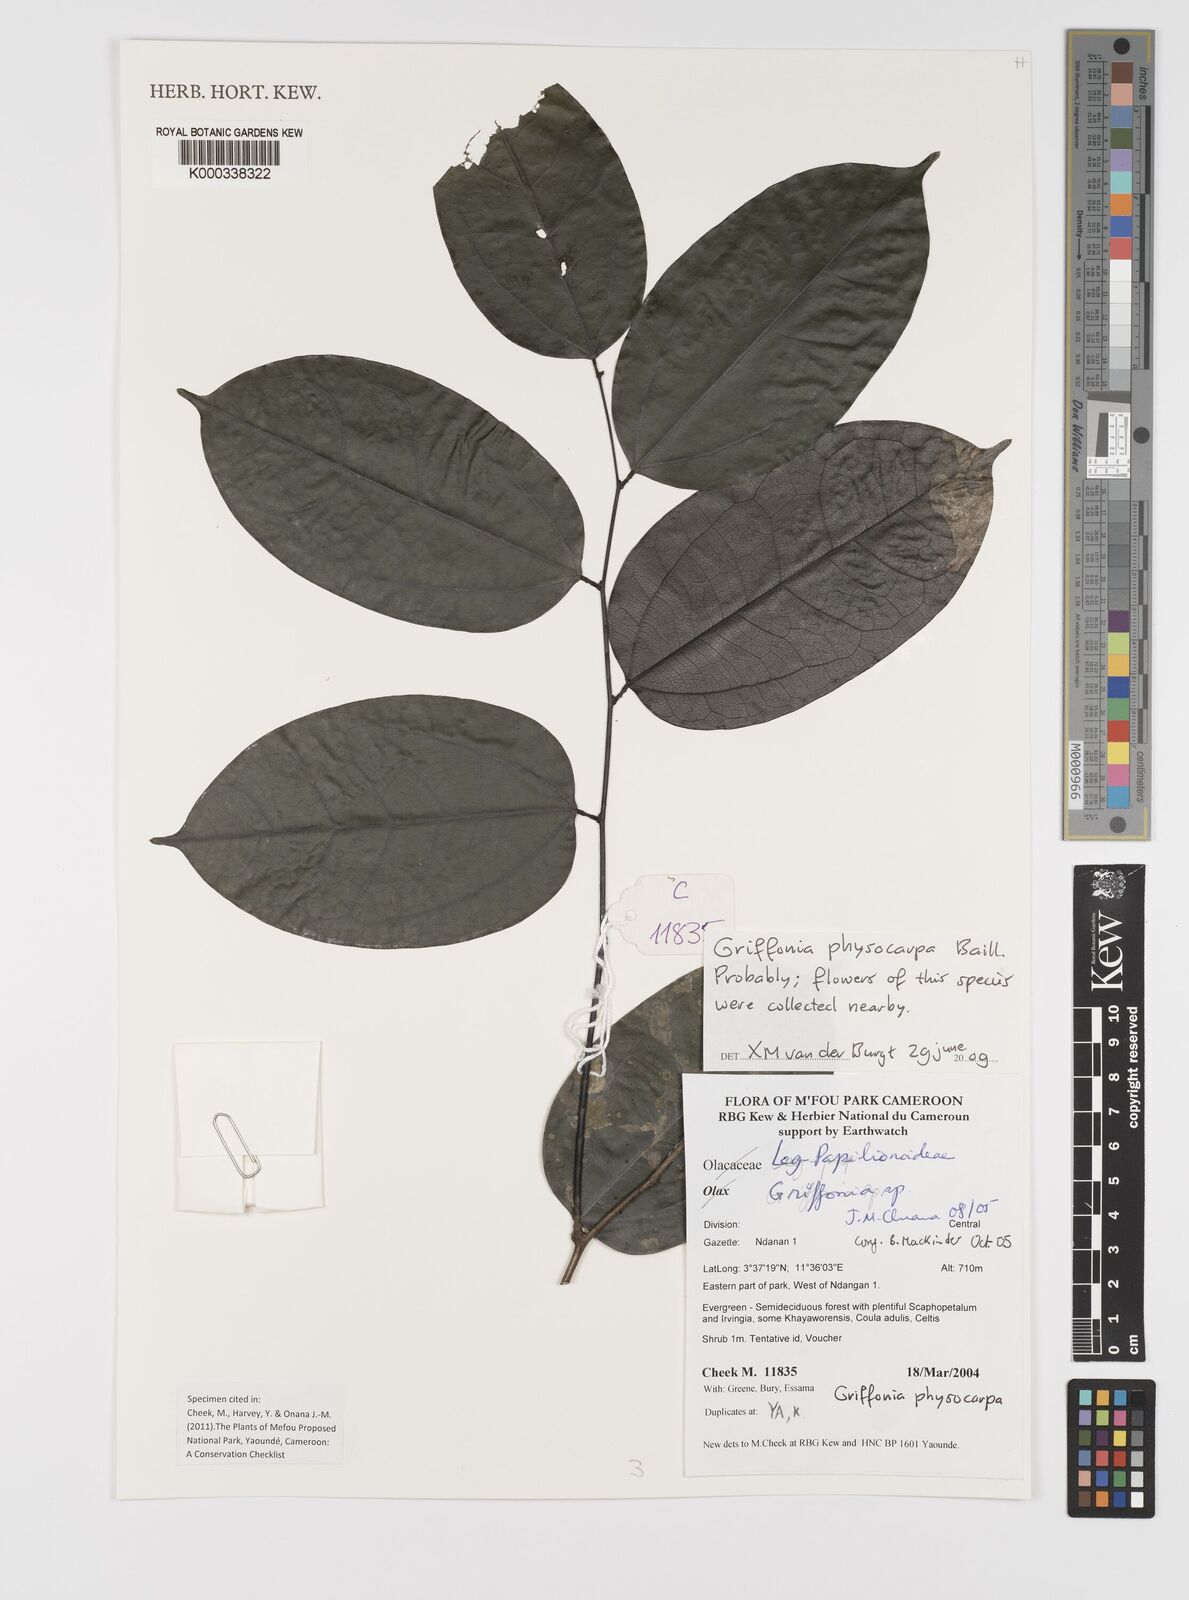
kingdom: Plantae
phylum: Tracheophyta
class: Magnoliopsida
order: Fabales
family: Fabaceae
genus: Griffonia
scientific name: Griffonia physocarpa
